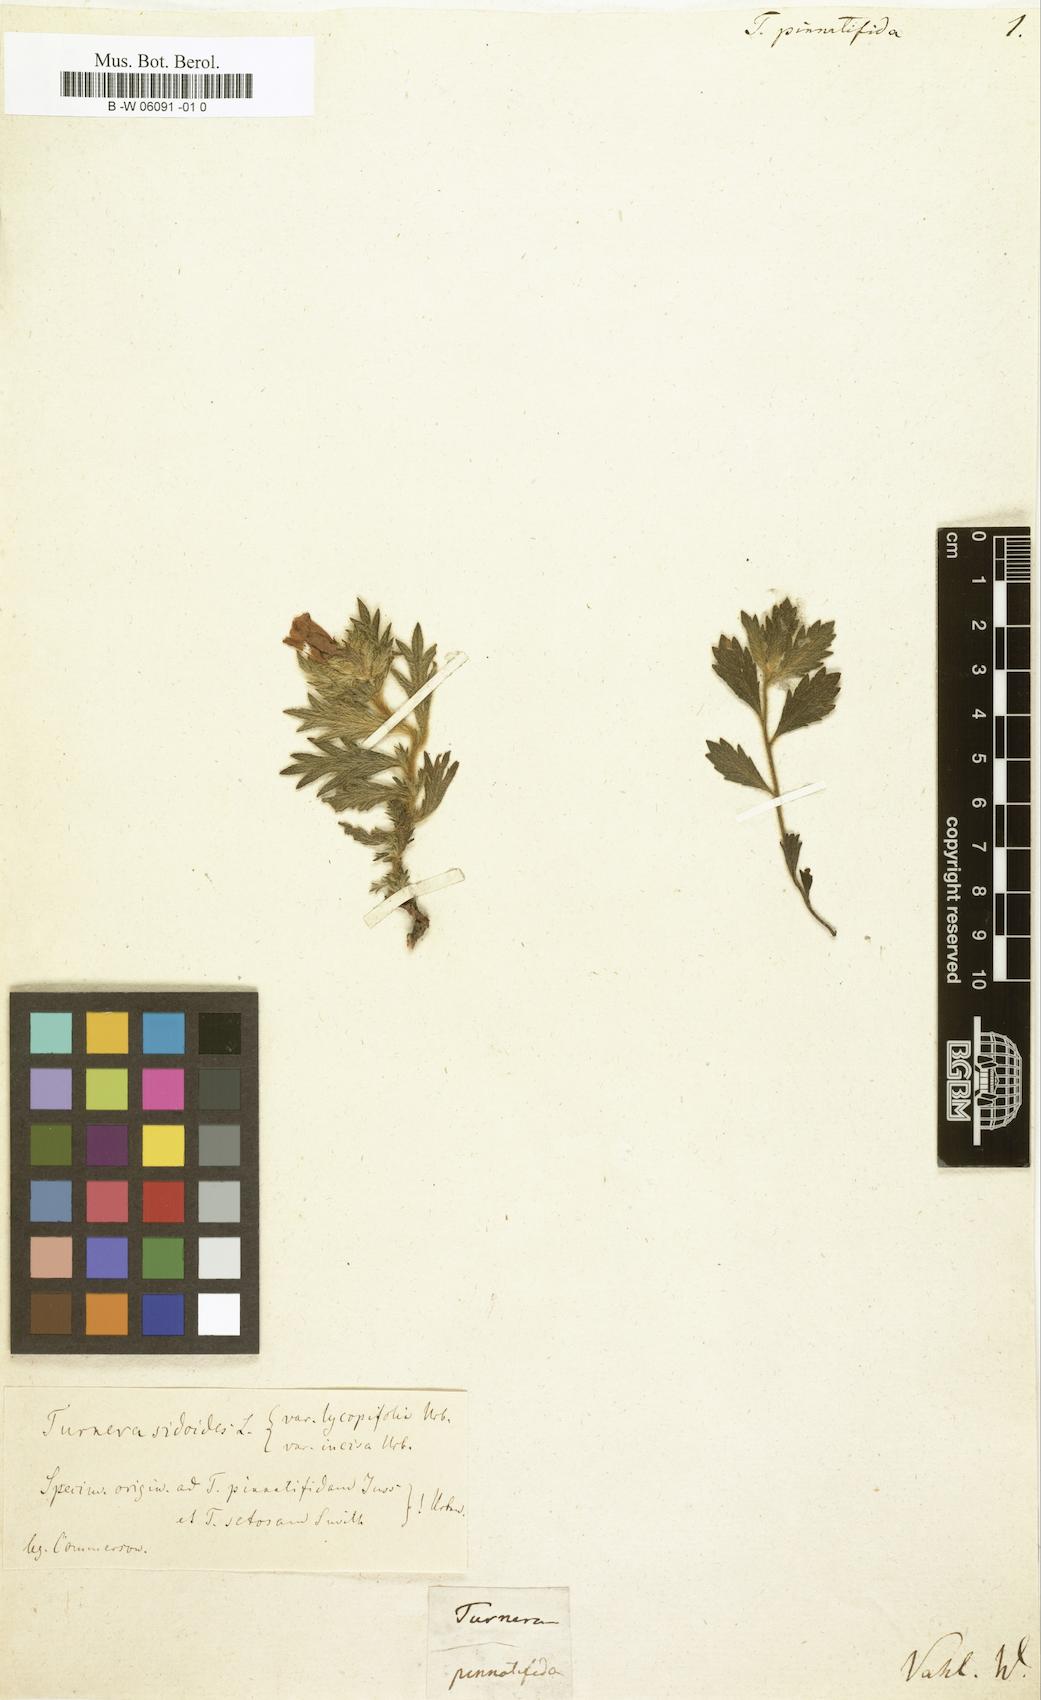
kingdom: Plantae
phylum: Tracheophyta
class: Magnoliopsida
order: Malpighiales
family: Turneraceae
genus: Turnera
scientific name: Turnera sidoides
